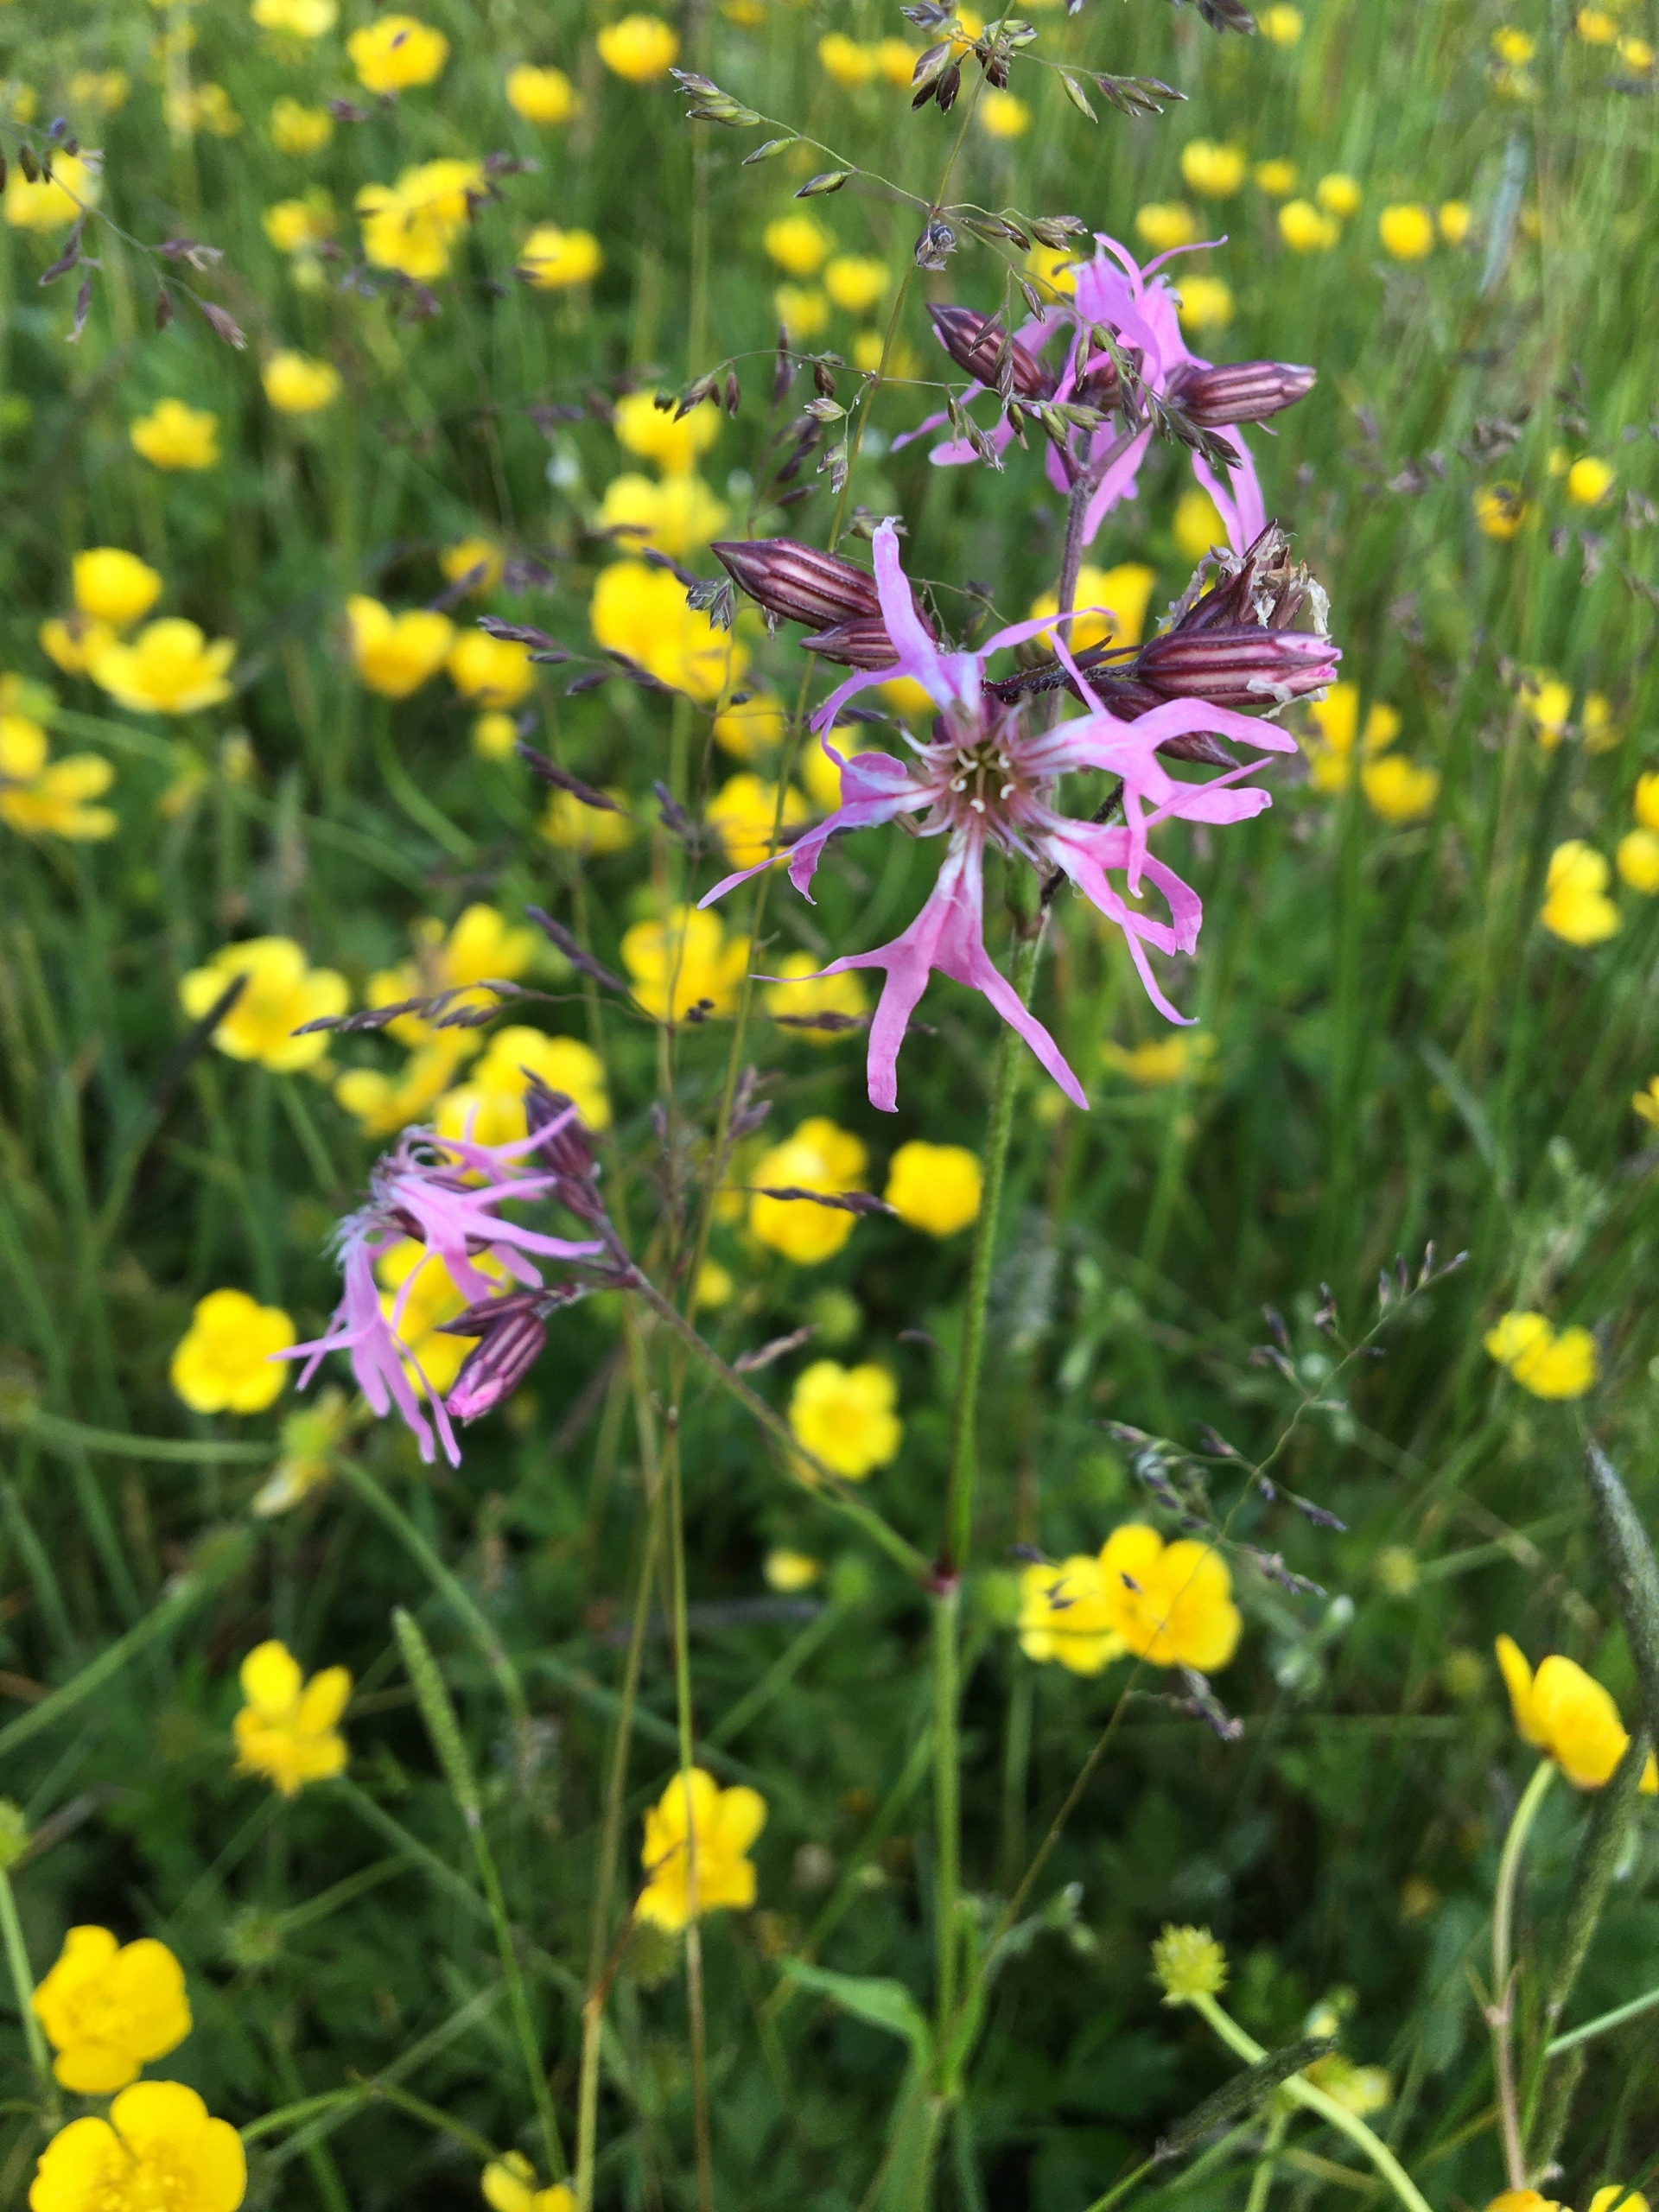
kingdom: Plantae
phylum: Tracheophyta
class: Magnoliopsida
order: Caryophyllales
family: Caryophyllaceae
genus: Silene
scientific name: Silene flos-cuculi
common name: Trævlekrone
